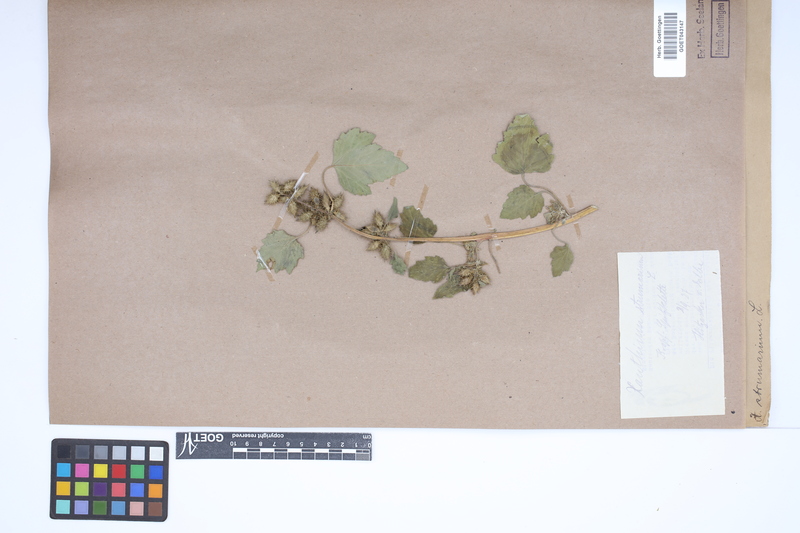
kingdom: Plantae
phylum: Tracheophyta
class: Magnoliopsida
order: Asterales
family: Asteraceae
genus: Xanthium
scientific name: Xanthium strumarium
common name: Rough cocklebur
